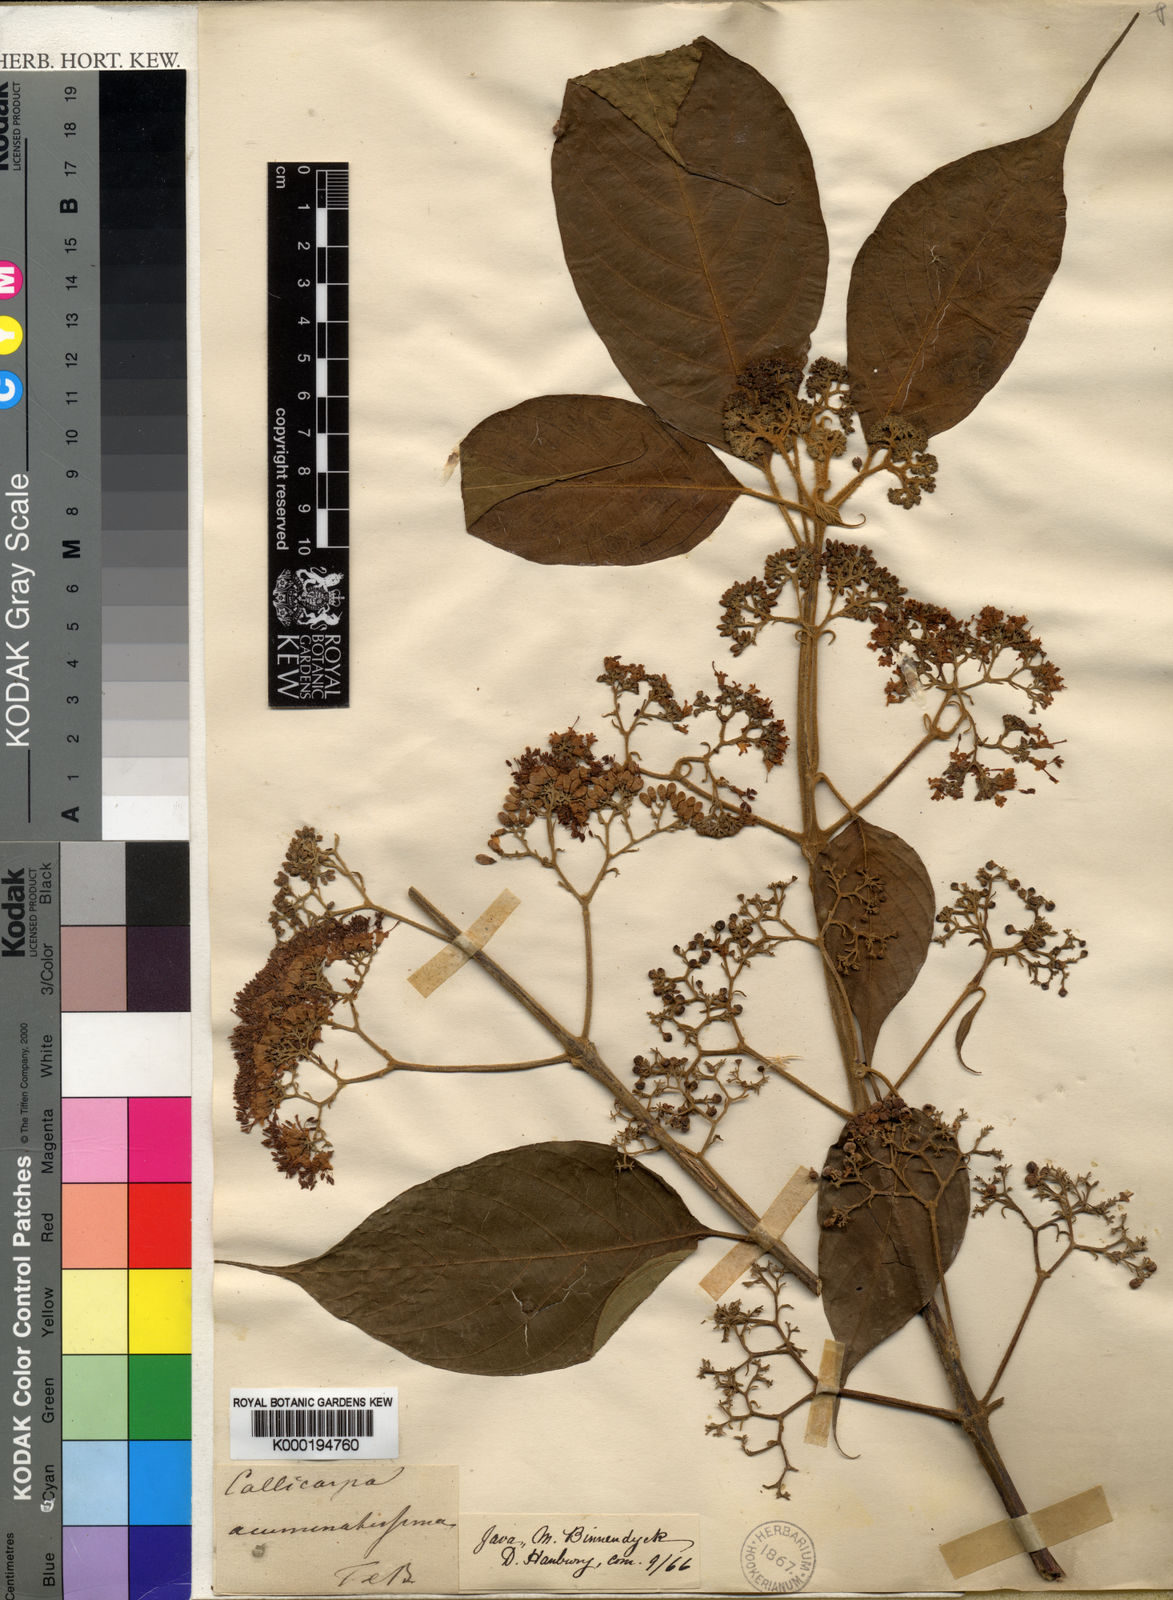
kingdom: Plantae
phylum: Tracheophyta
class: Magnoliopsida
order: Lamiales
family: Lamiaceae
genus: Callicarpa
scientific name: Callicarpa pentandra
